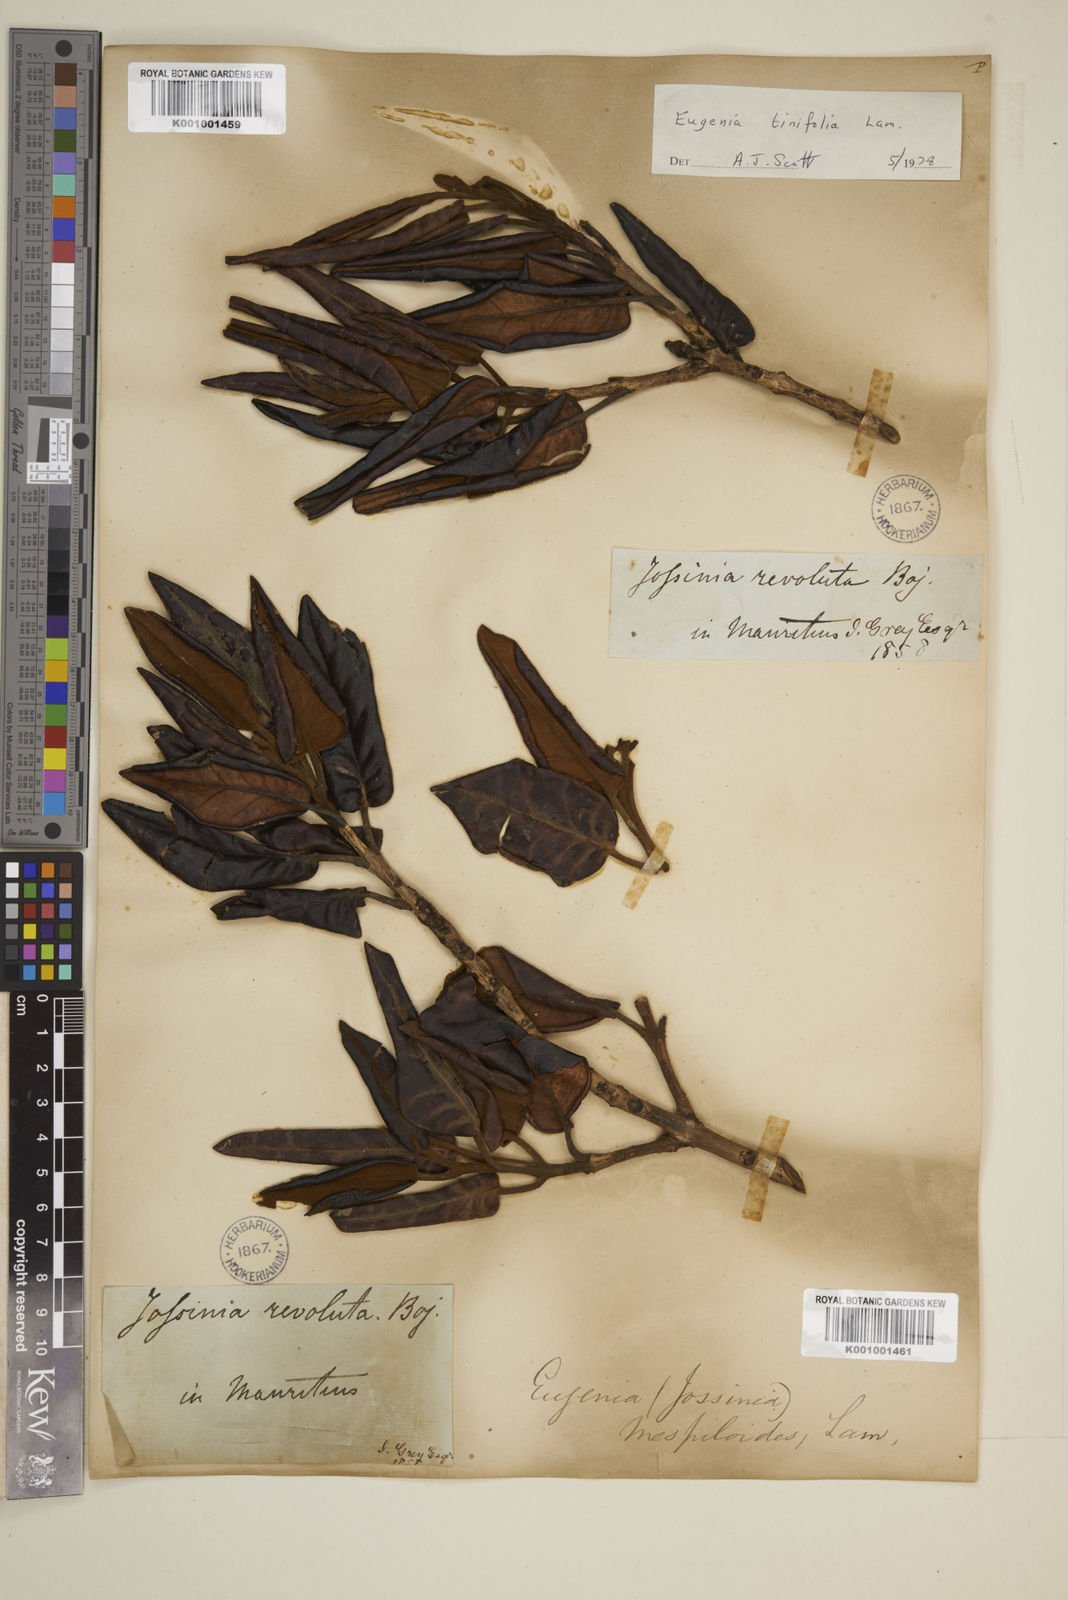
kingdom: Plantae
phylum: Tracheophyta
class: Magnoliopsida
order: Myrtales
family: Myrtaceae
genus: Eugenia
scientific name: Eugenia tinifolia
